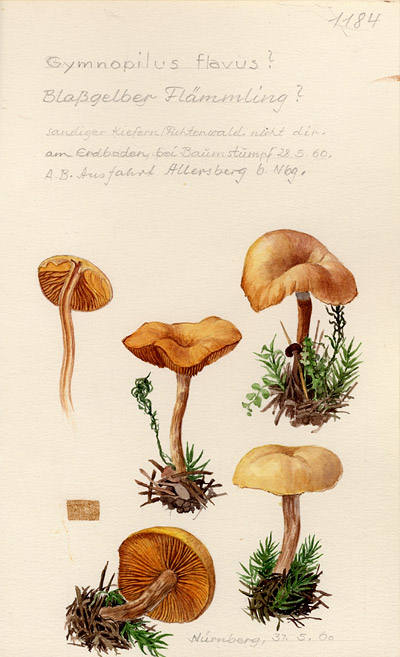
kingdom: Fungi
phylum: Basidiomycota
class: Agaricomycetes
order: Agaricales
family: Hymenogastraceae
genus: Gymnopilus
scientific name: Gymnopilus flavus
